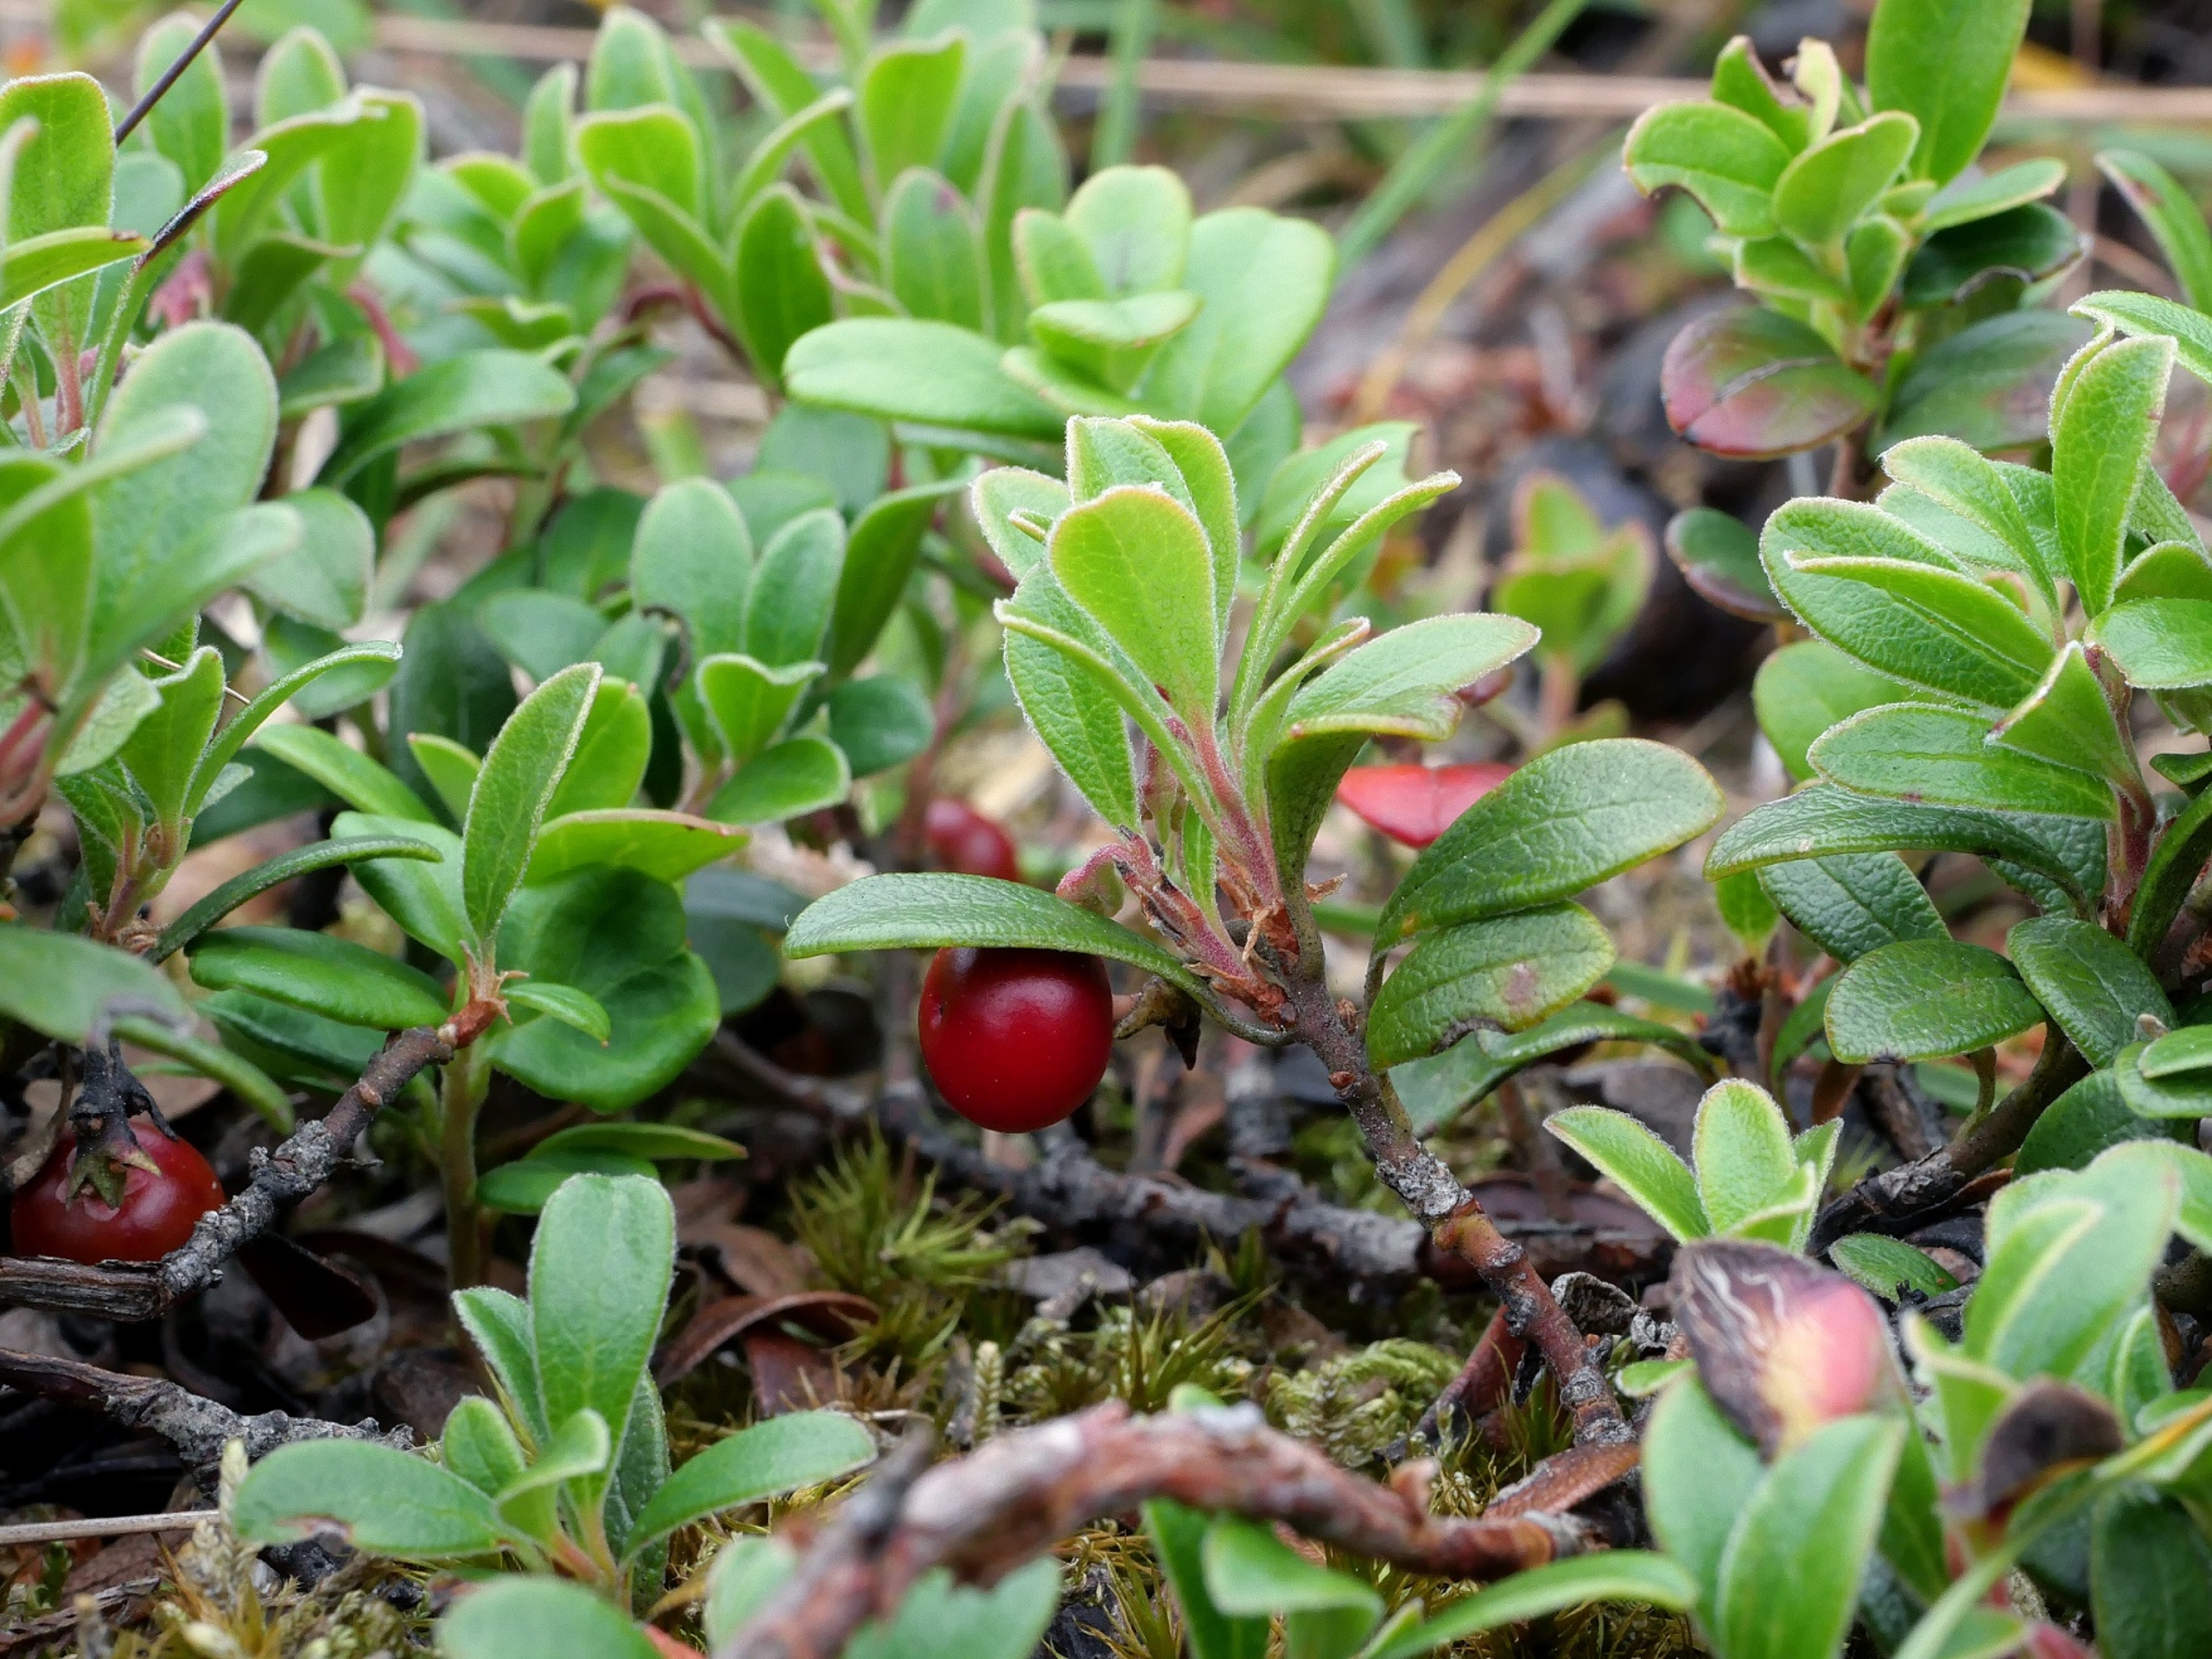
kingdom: Plantae
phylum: Tracheophyta
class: Magnoliopsida
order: Ericales
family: Ericaceae
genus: Arctostaphylos
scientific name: Arctostaphylos uva-ursi
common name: Hede-melbærris
